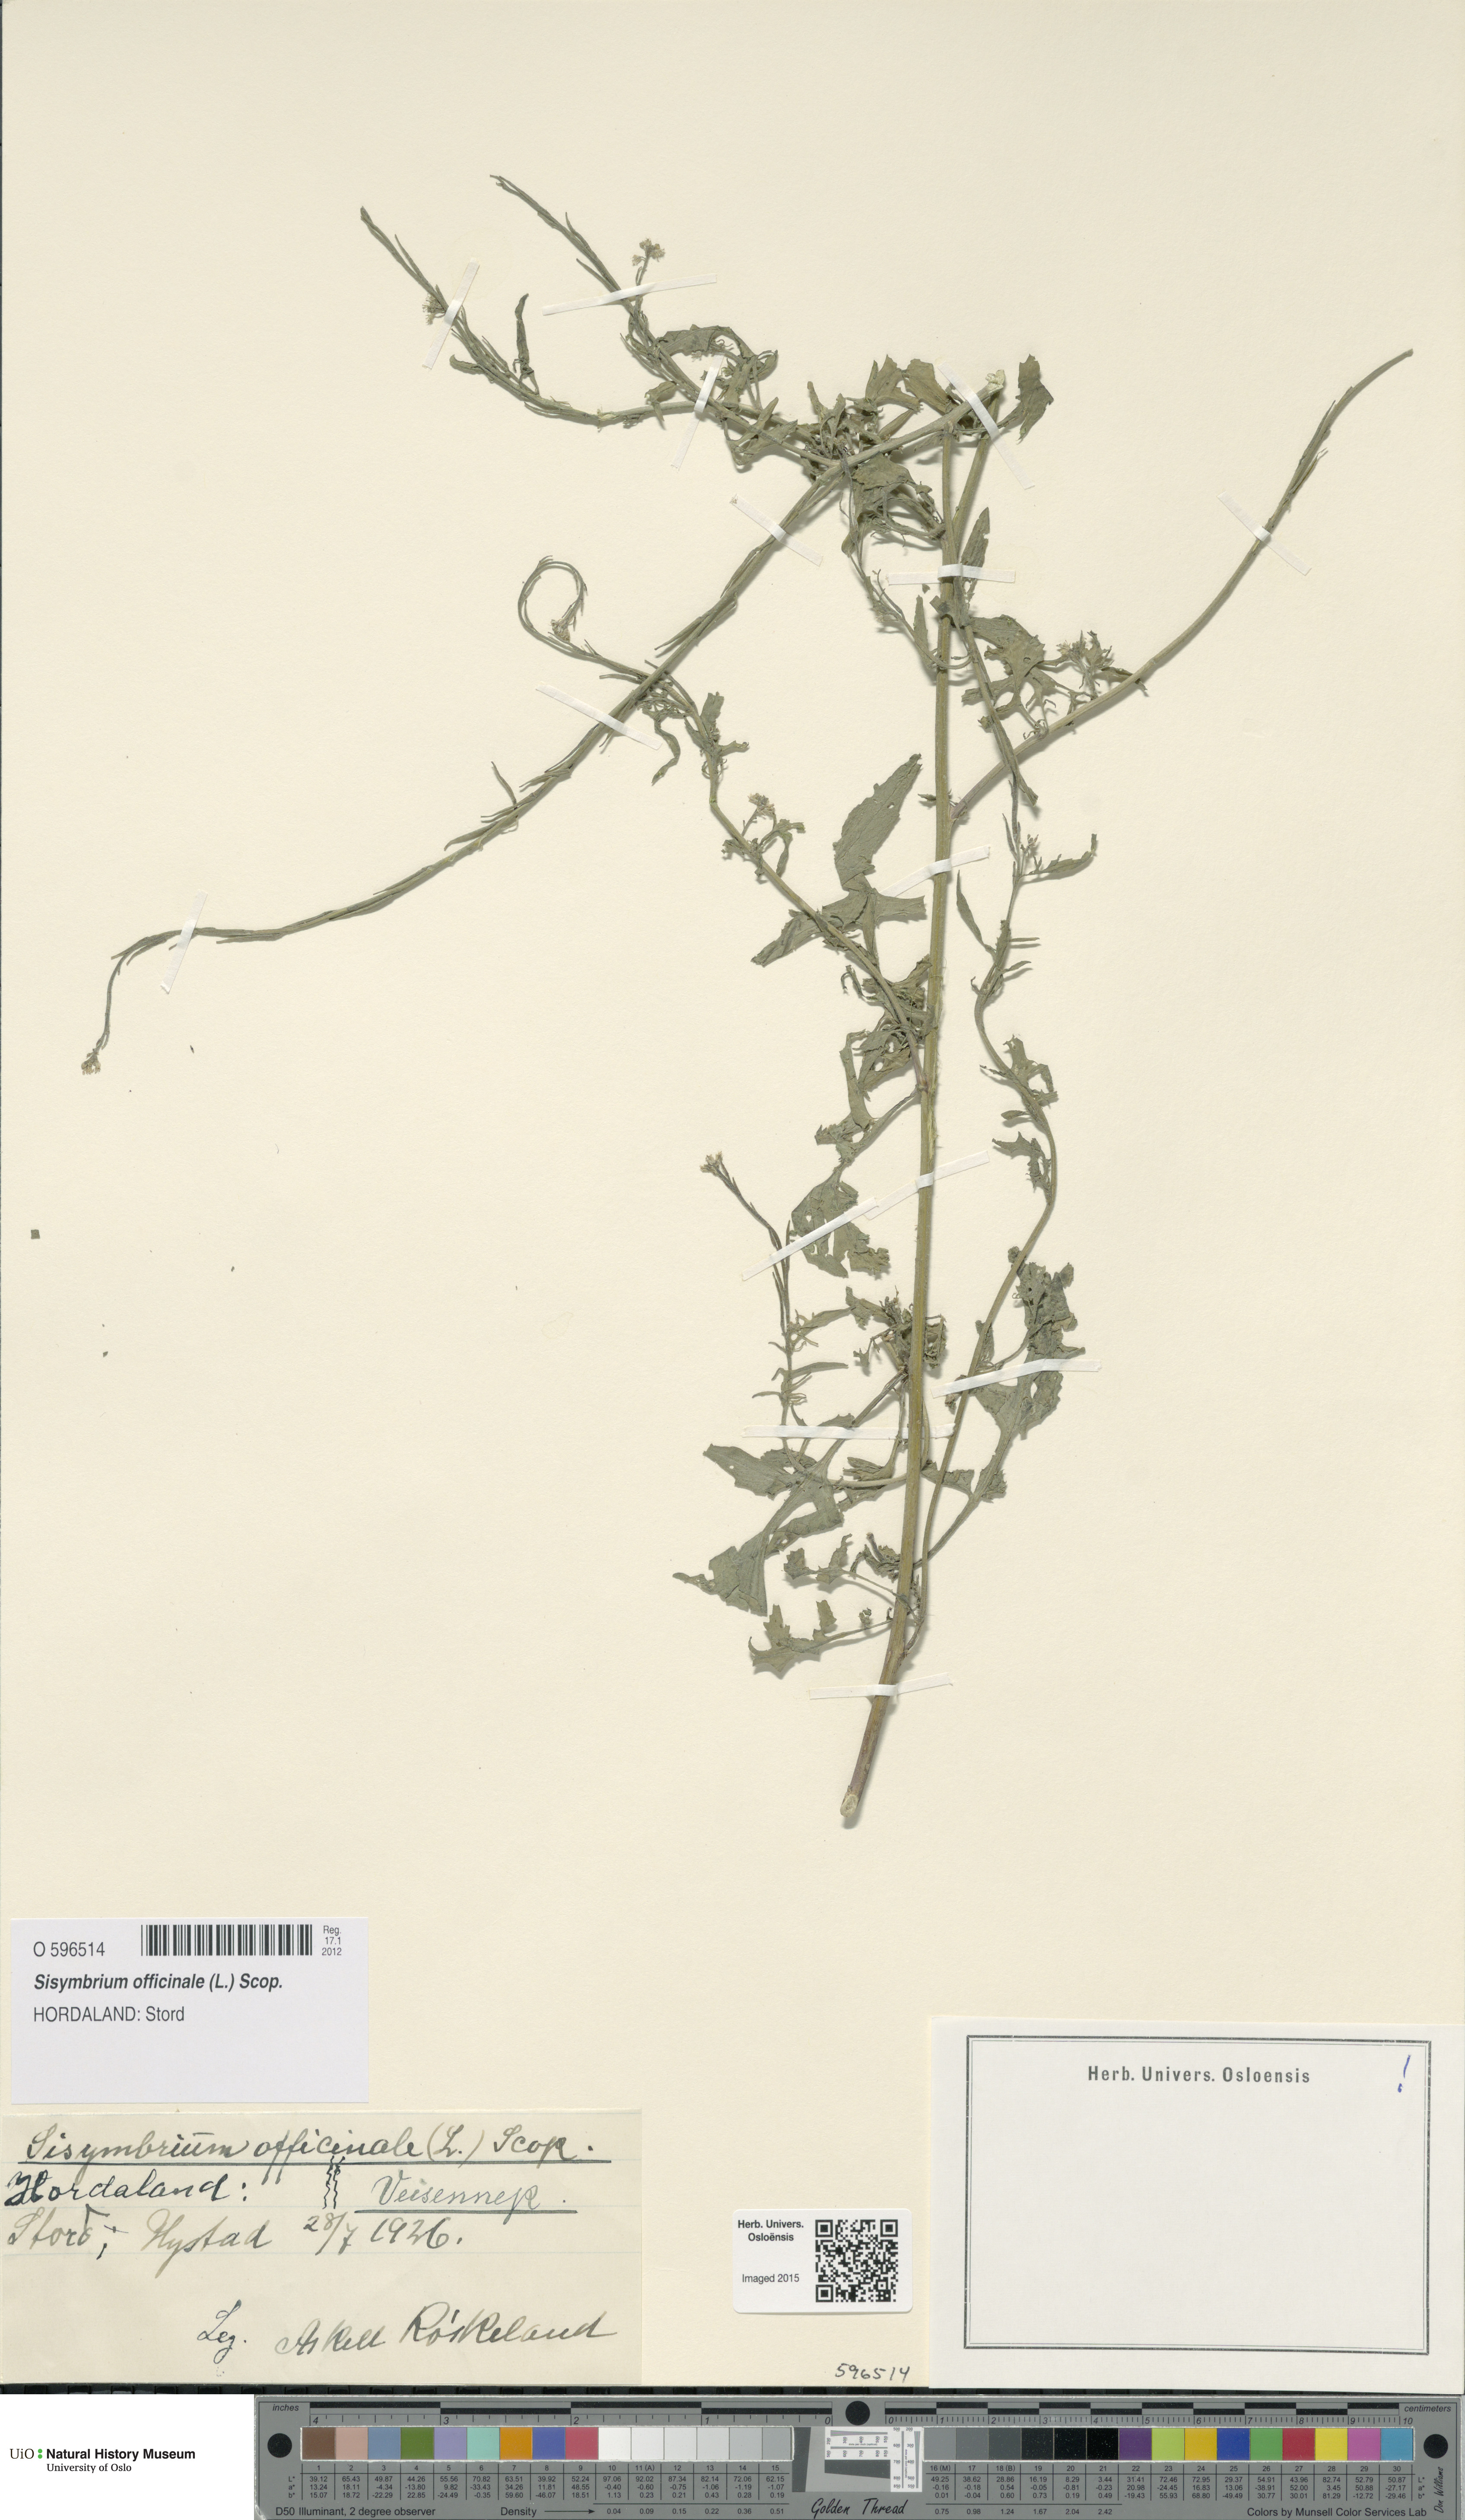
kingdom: Plantae
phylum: Tracheophyta
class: Magnoliopsida
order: Brassicales
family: Brassicaceae
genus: Sisymbrium
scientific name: Sisymbrium officinale
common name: Hedge mustard
